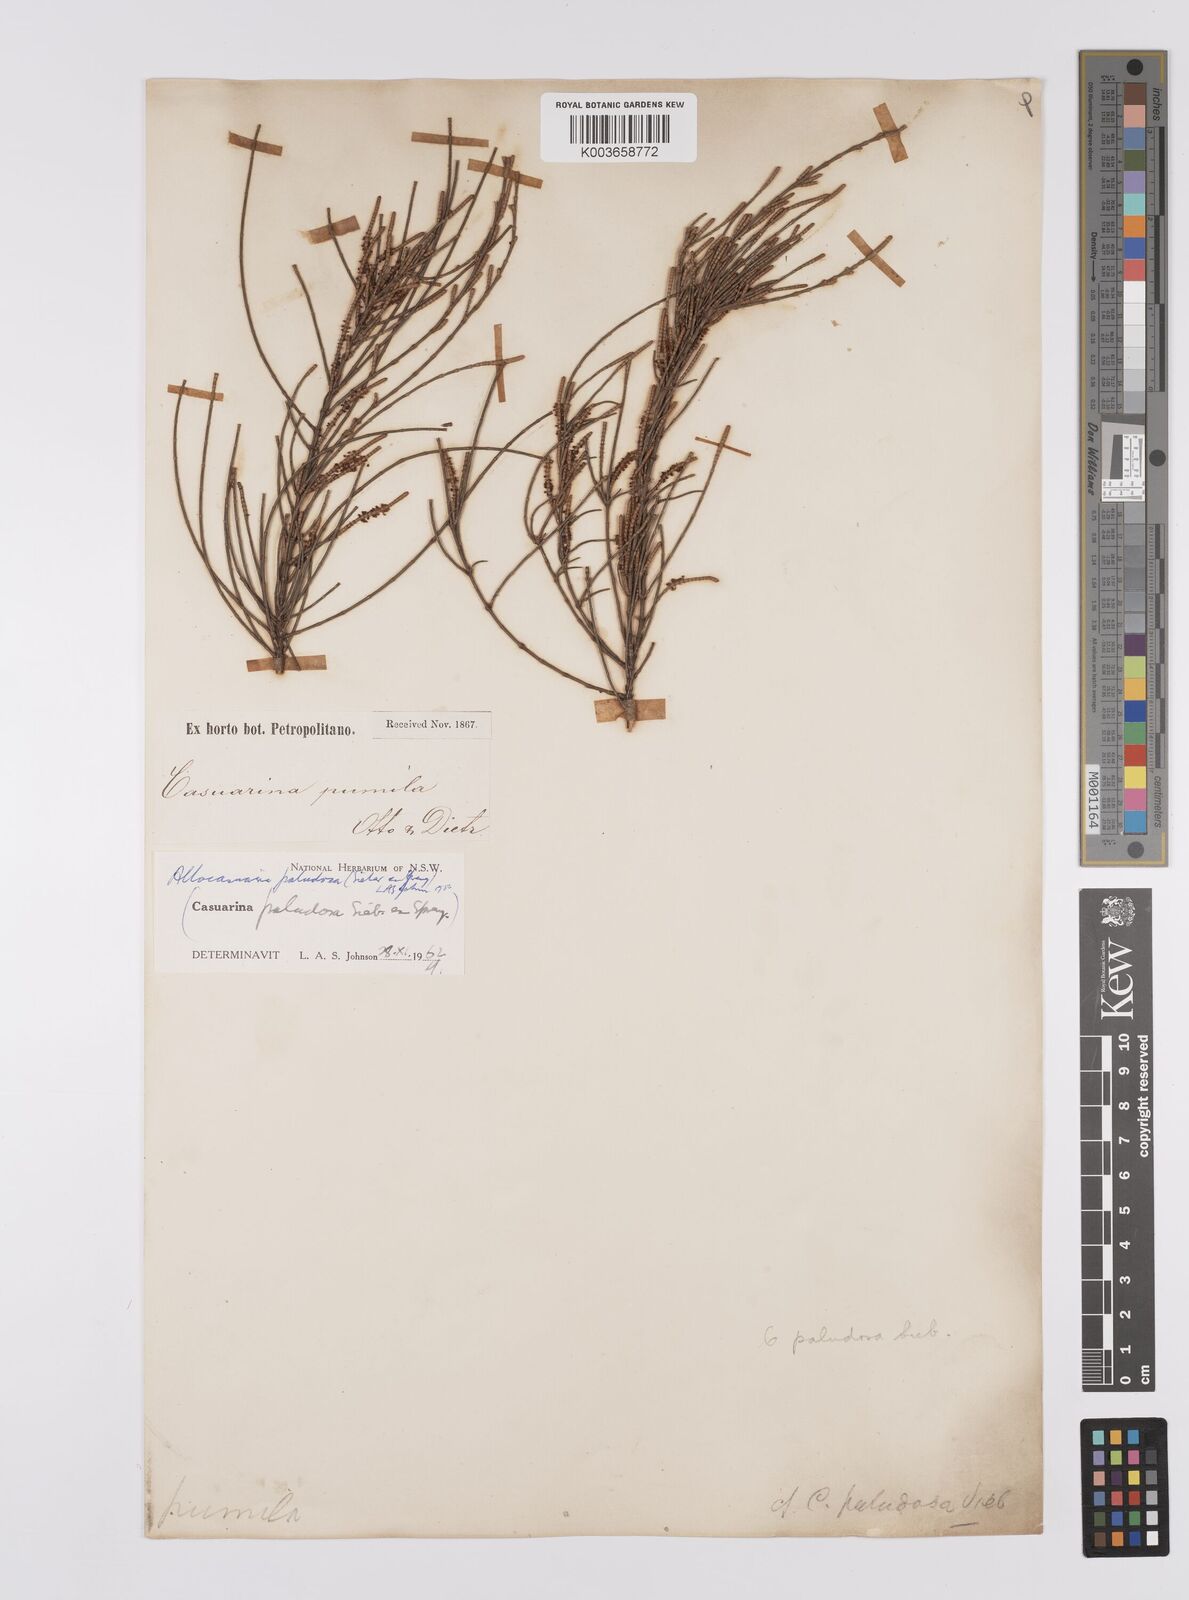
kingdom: Plantae
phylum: Tracheophyta
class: Magnoliopsida
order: Fagales
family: Casuarinaceae
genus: Allocasuarina
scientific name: Allocasuarina paludosa
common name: Scrub she-oak
